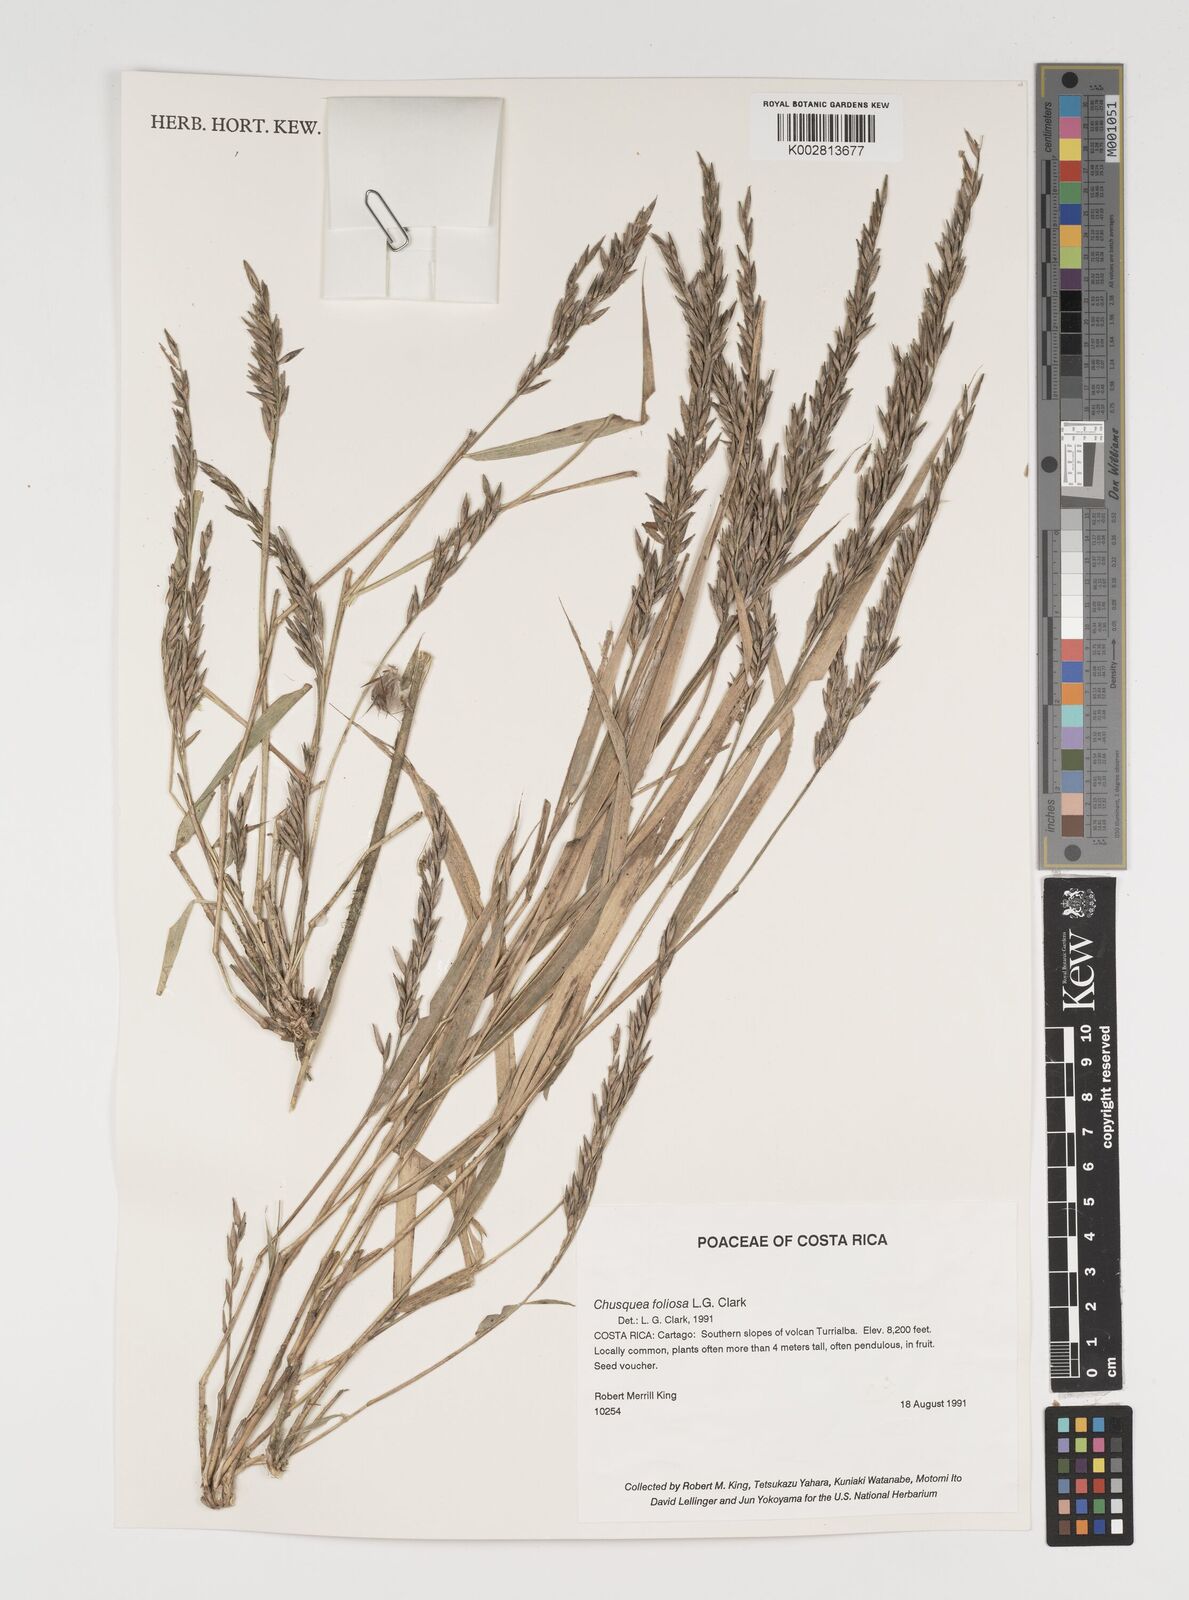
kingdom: Plantae
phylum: Tracheophyta
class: Liliopsida
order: Poales
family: Poaceae
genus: Chusquea
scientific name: Chusquea foliosa
